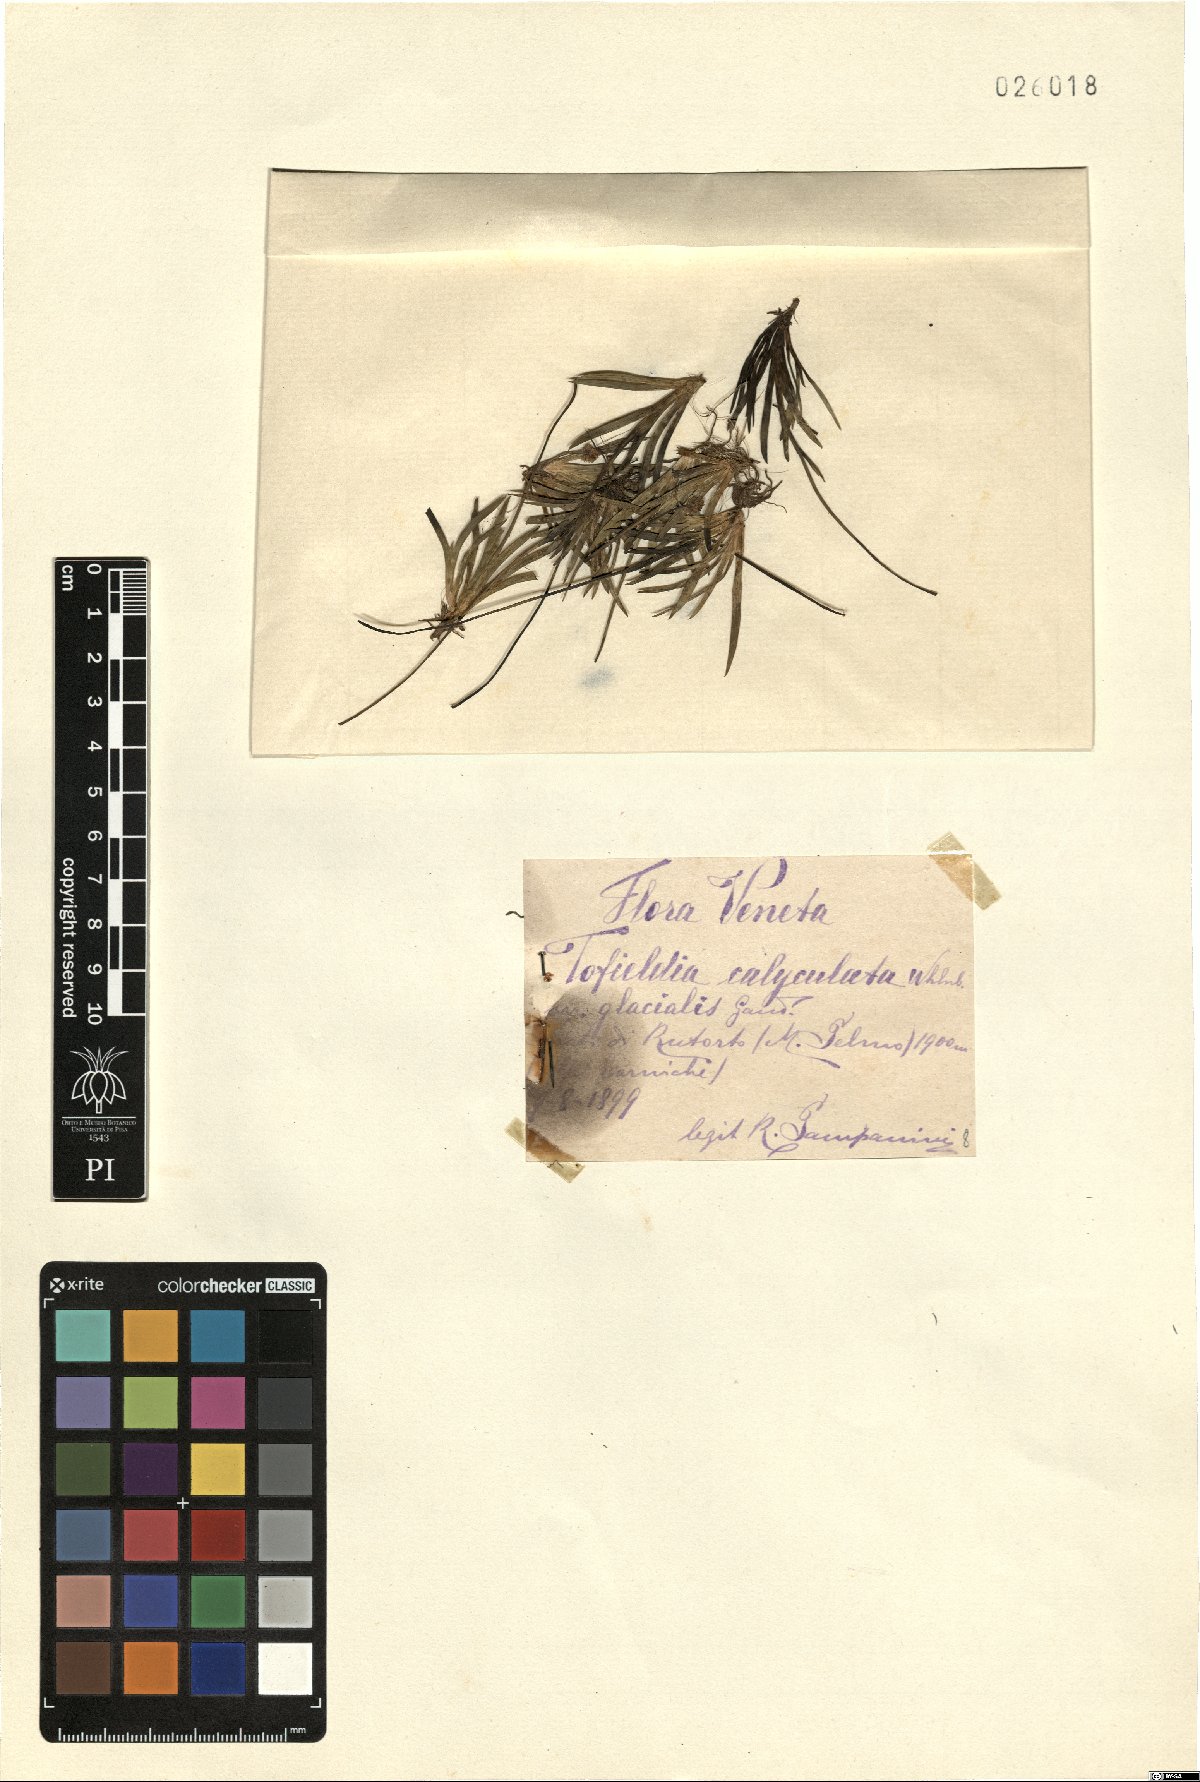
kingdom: Plantae
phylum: Tracheophyta
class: Liliopsida
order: Alismatales
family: Tofieldiaceae
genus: Tofieldia
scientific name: Tofieldia calyculata
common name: German-asphodel
